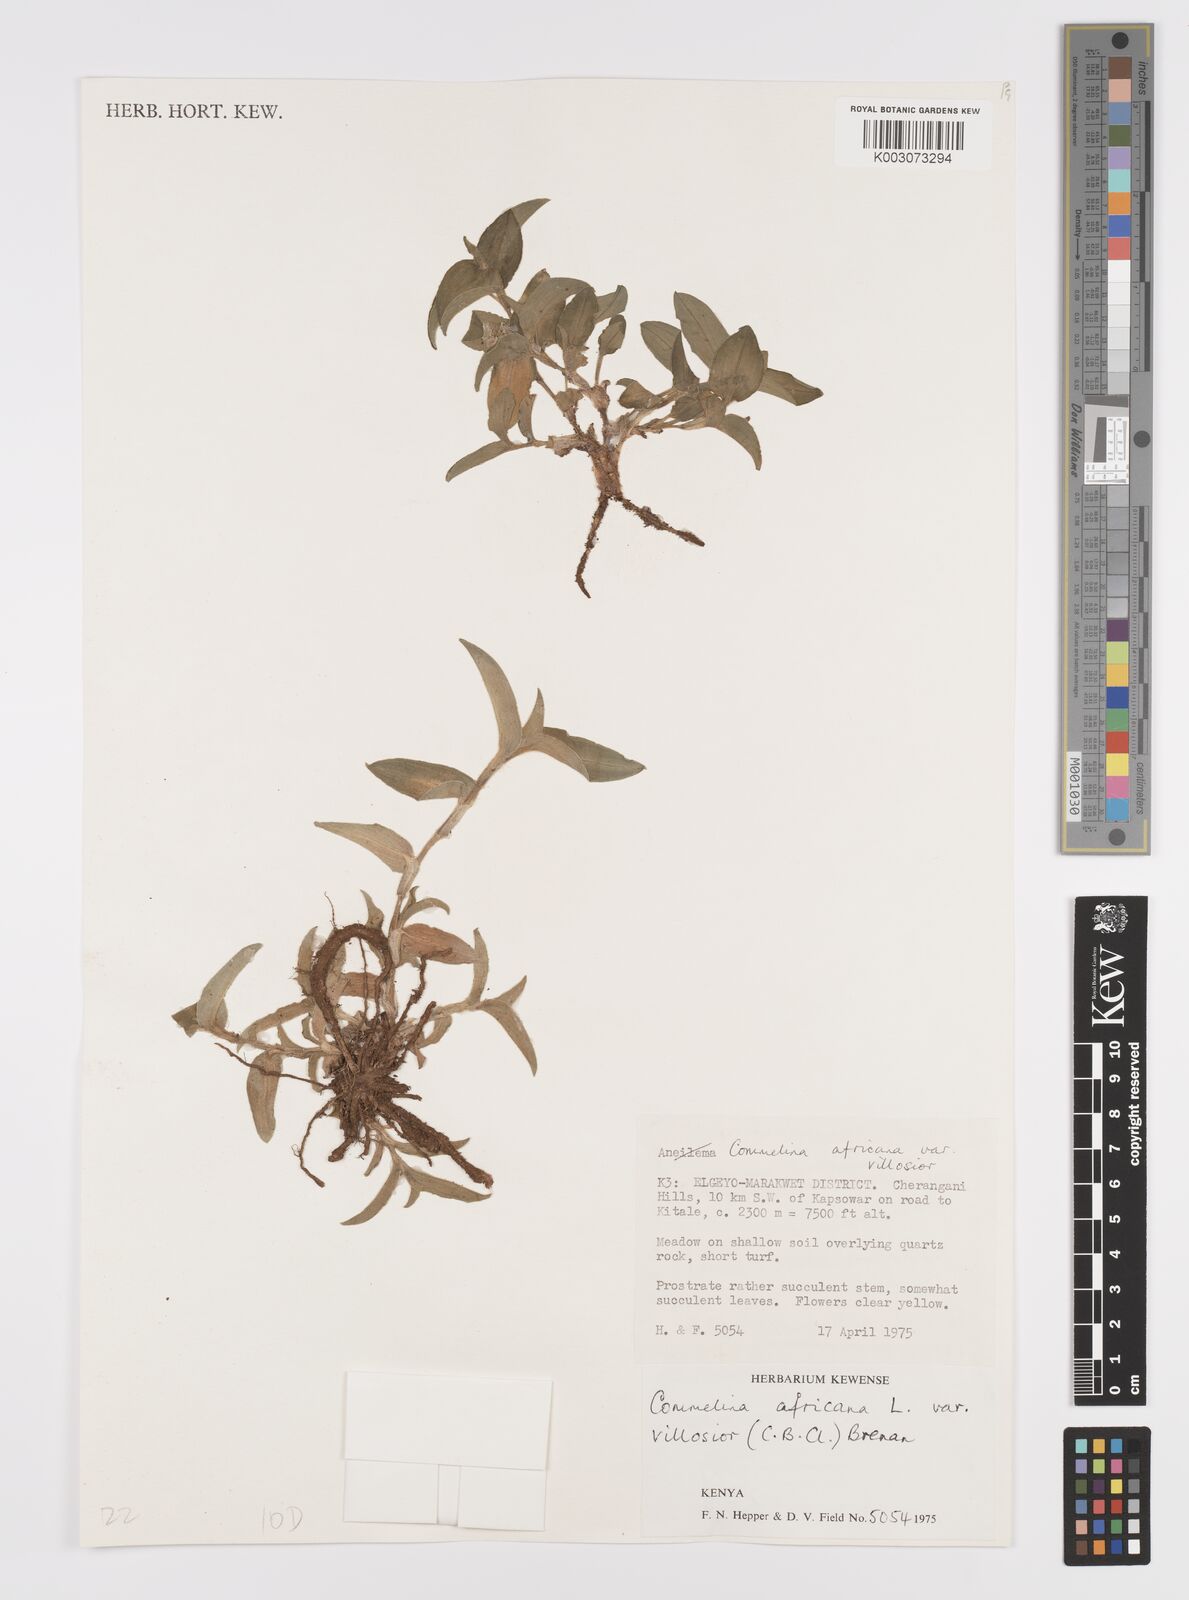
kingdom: Plantae
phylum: Tracheophyta
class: Liliopsida
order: Commelinales
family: Commelinaceae
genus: Commelina
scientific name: Commelina africana
